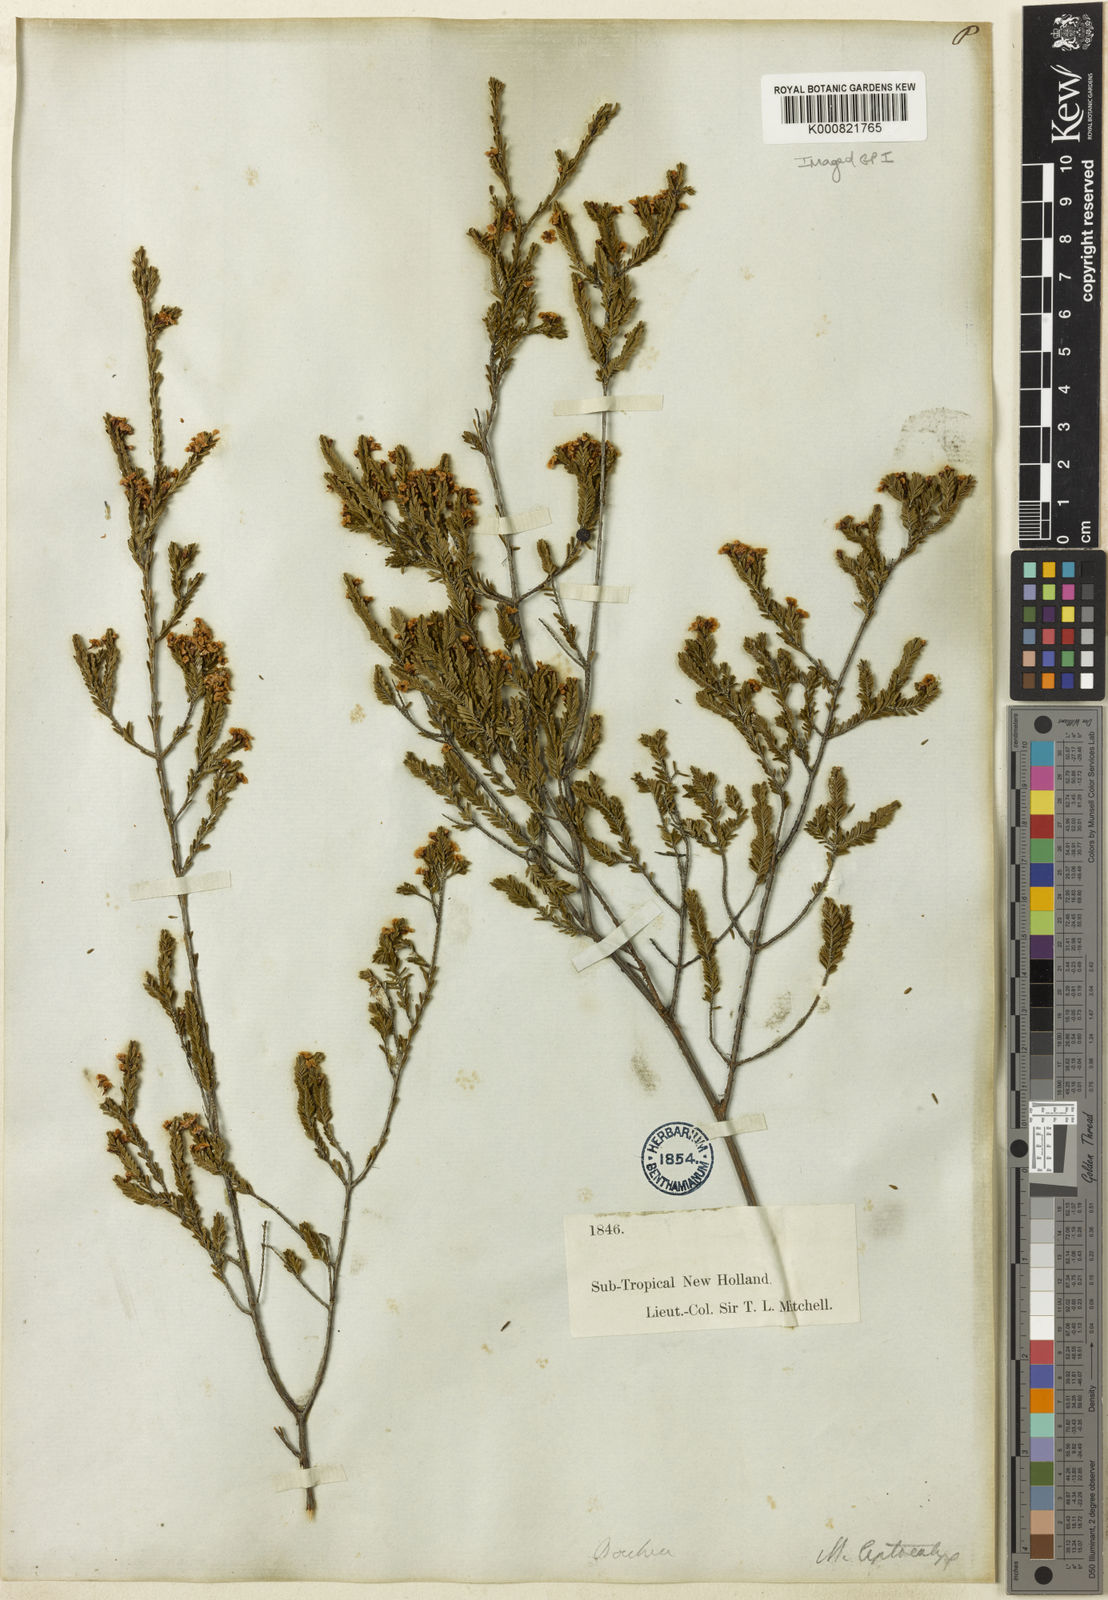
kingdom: Plantae
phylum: Tracheophyta
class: Magnoliopsida
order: Myrtales
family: Myrtaceae
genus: Micromyrtus
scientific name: Micromyrtus leptocalyx
